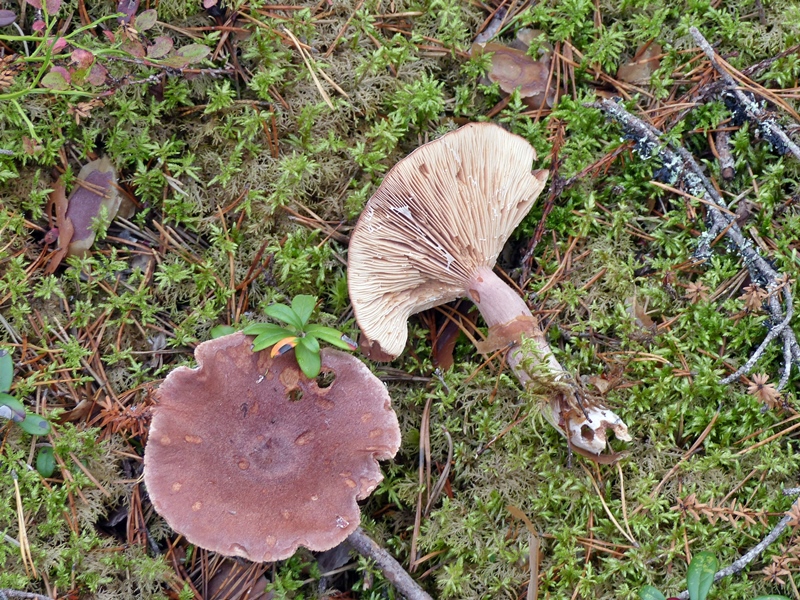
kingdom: Fungi
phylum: Basidiomycota
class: Agaricomycetes
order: Russulales
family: Russulaceae
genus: Lactarius
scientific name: Lactarius rufus
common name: Rufous milk-cap
